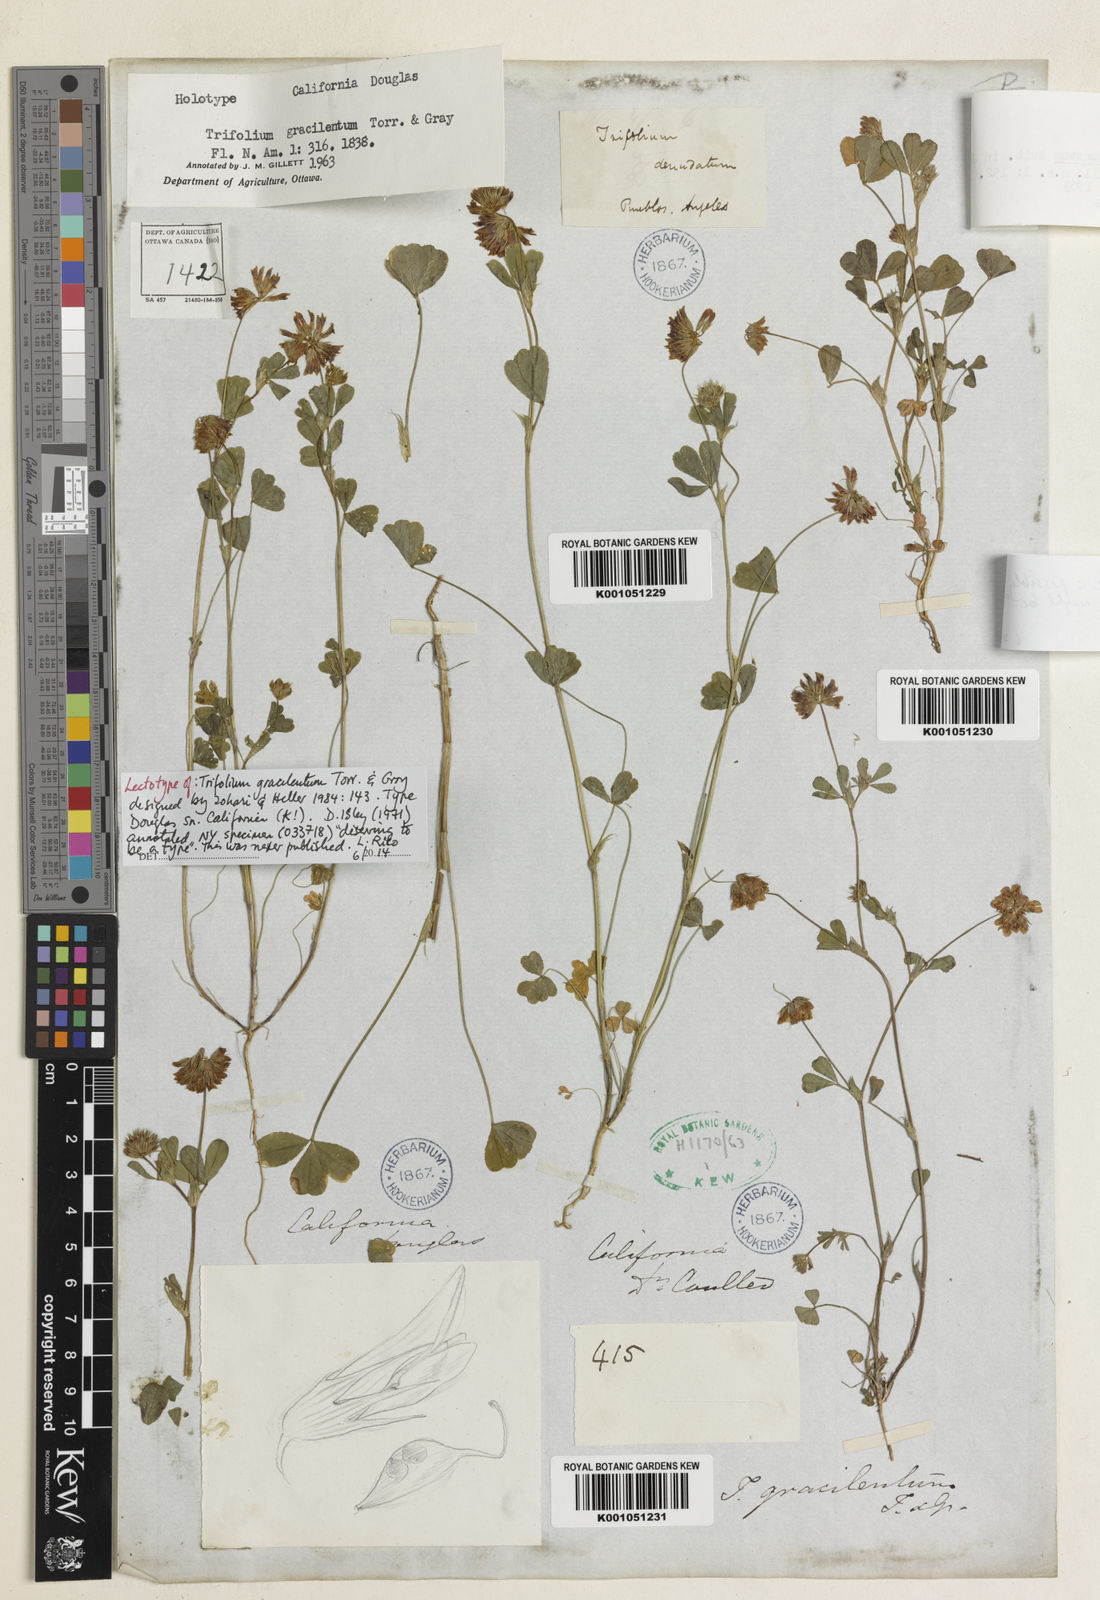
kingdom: Plantae
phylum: Tracheophyta
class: Magnoliopsida
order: Fabales
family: Fabaceae
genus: Trifolium
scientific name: Trifolium gracilentum
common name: Slender clover
